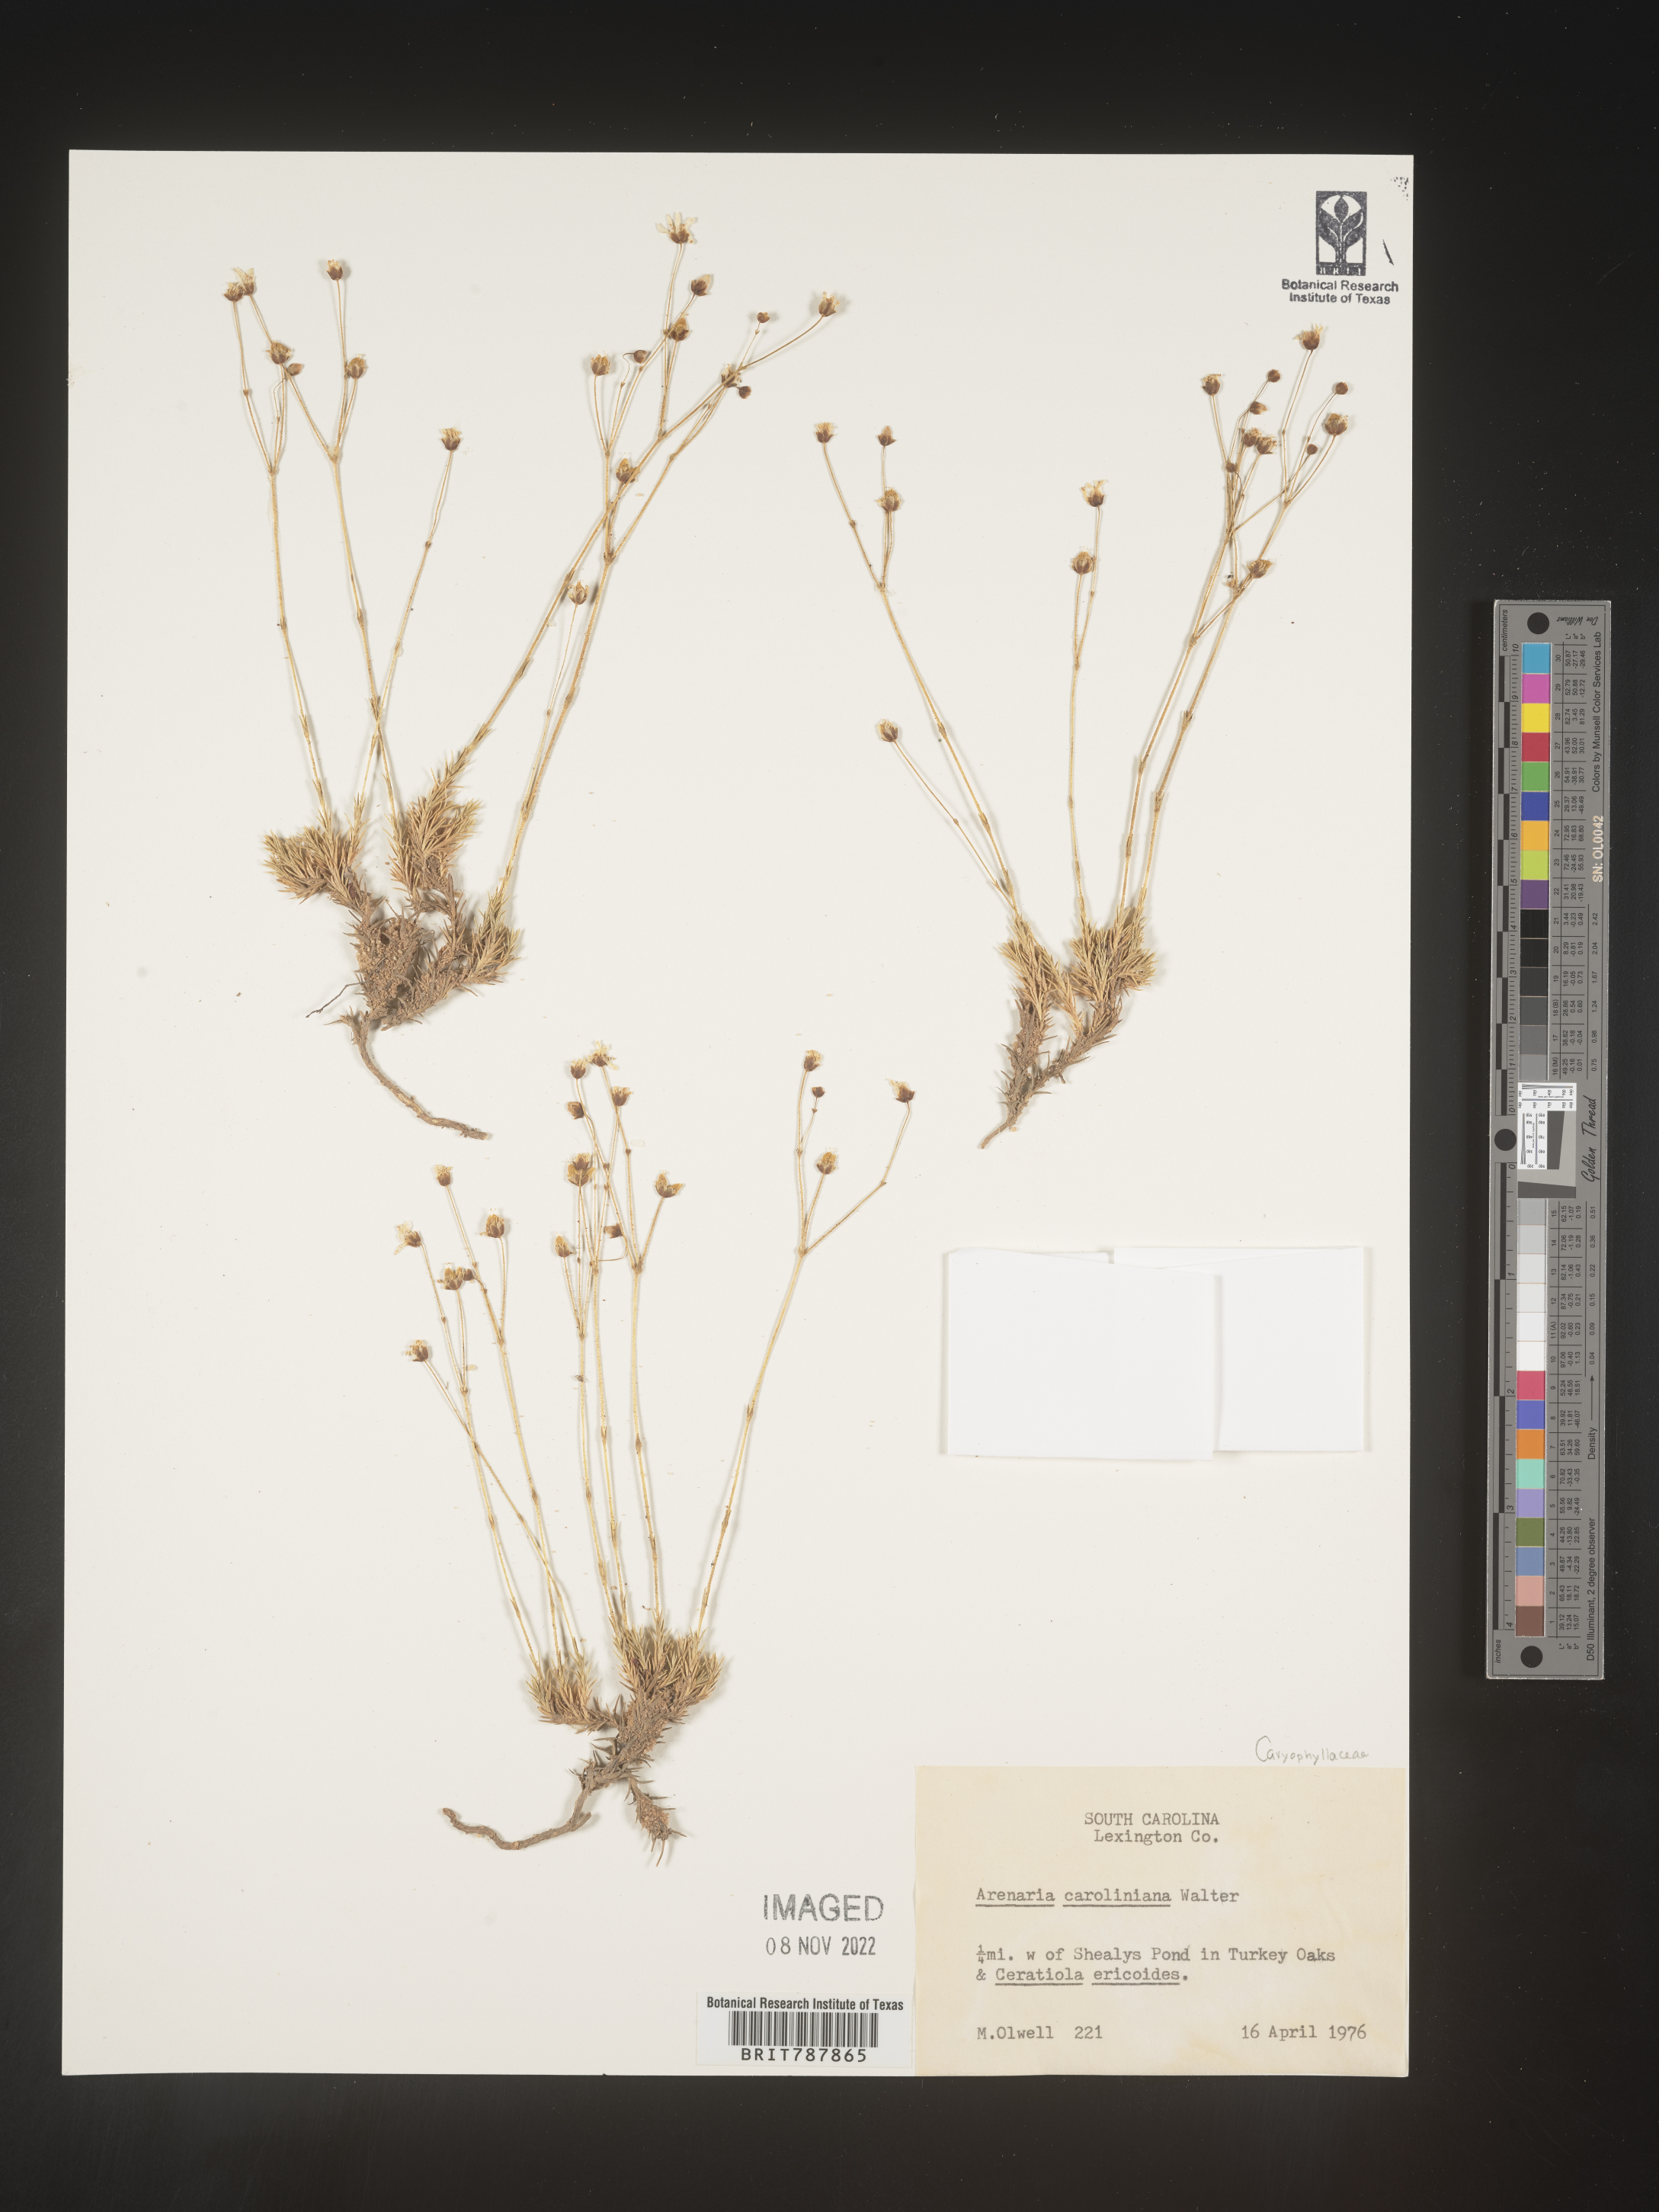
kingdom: Plantae
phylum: Tracheophyta
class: Magnoliopsida
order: Caryophyllales
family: Caryophyllaceae
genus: Arenaria
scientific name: Arenaria
